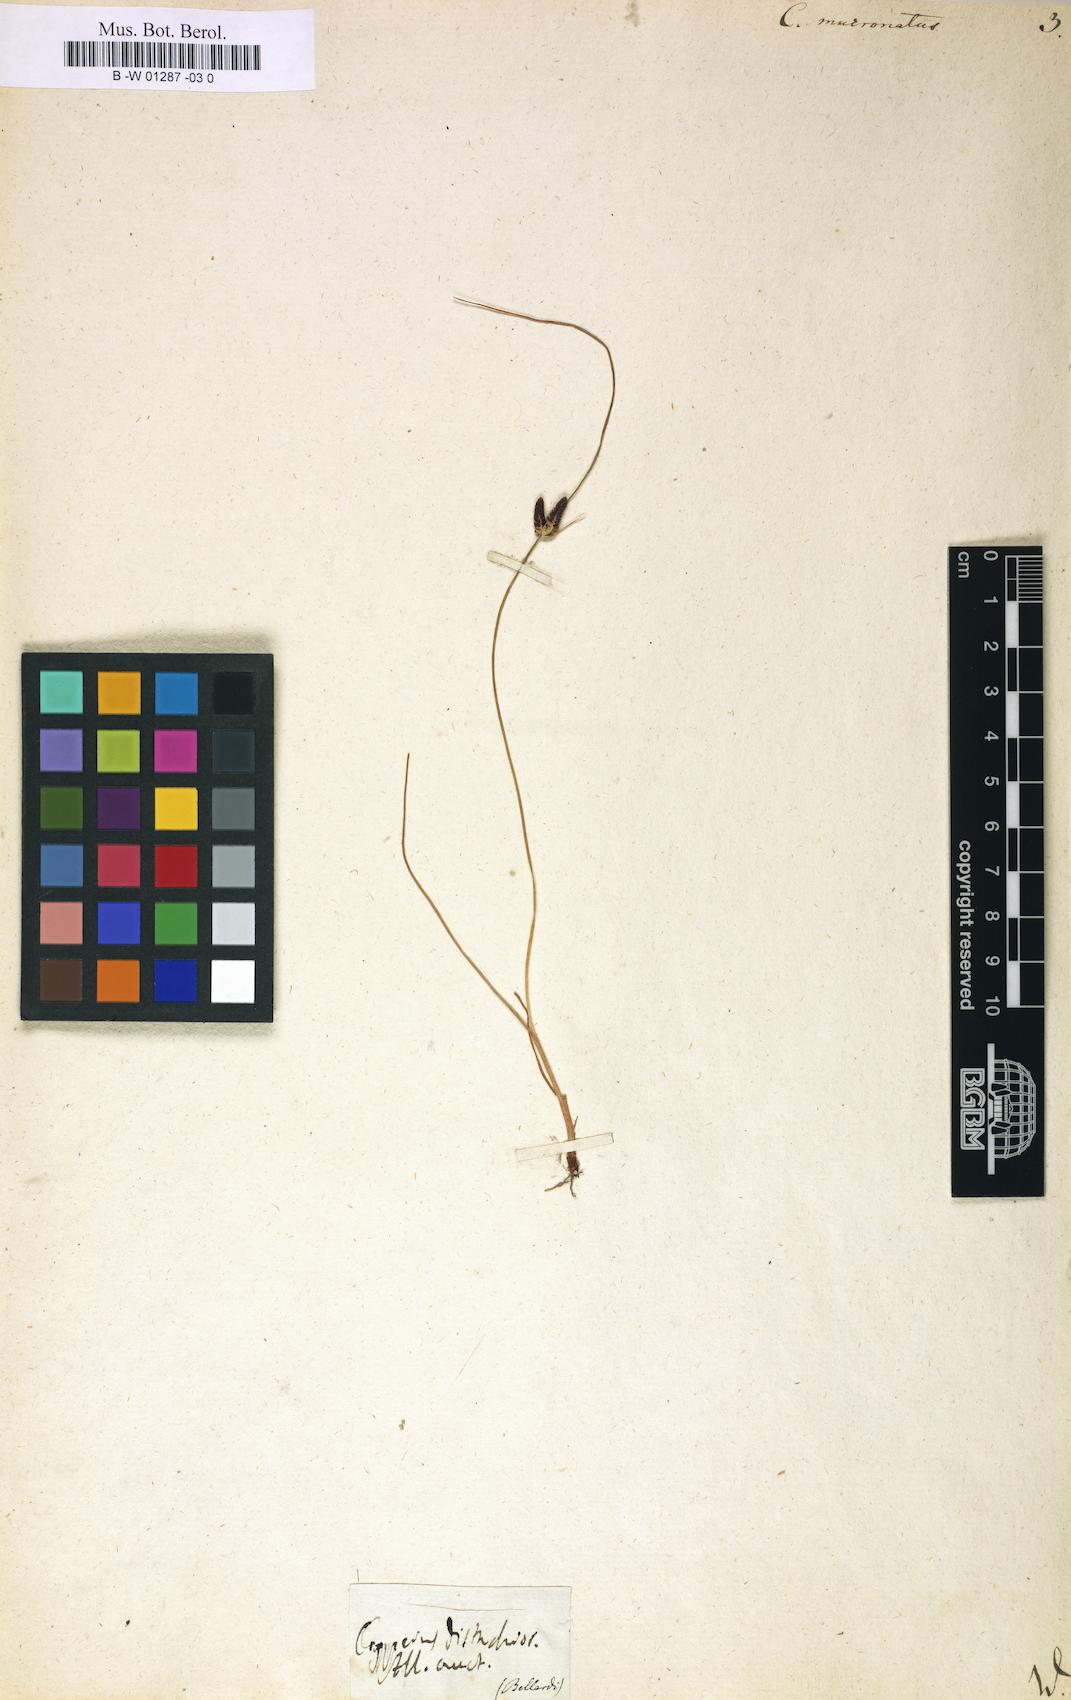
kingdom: Plantae
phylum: Tracheophyta
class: Liliopsida
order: Poales
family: Cyperaceae
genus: Cyperus
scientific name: Cyperus laevigatus
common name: Smooth flat sedge
